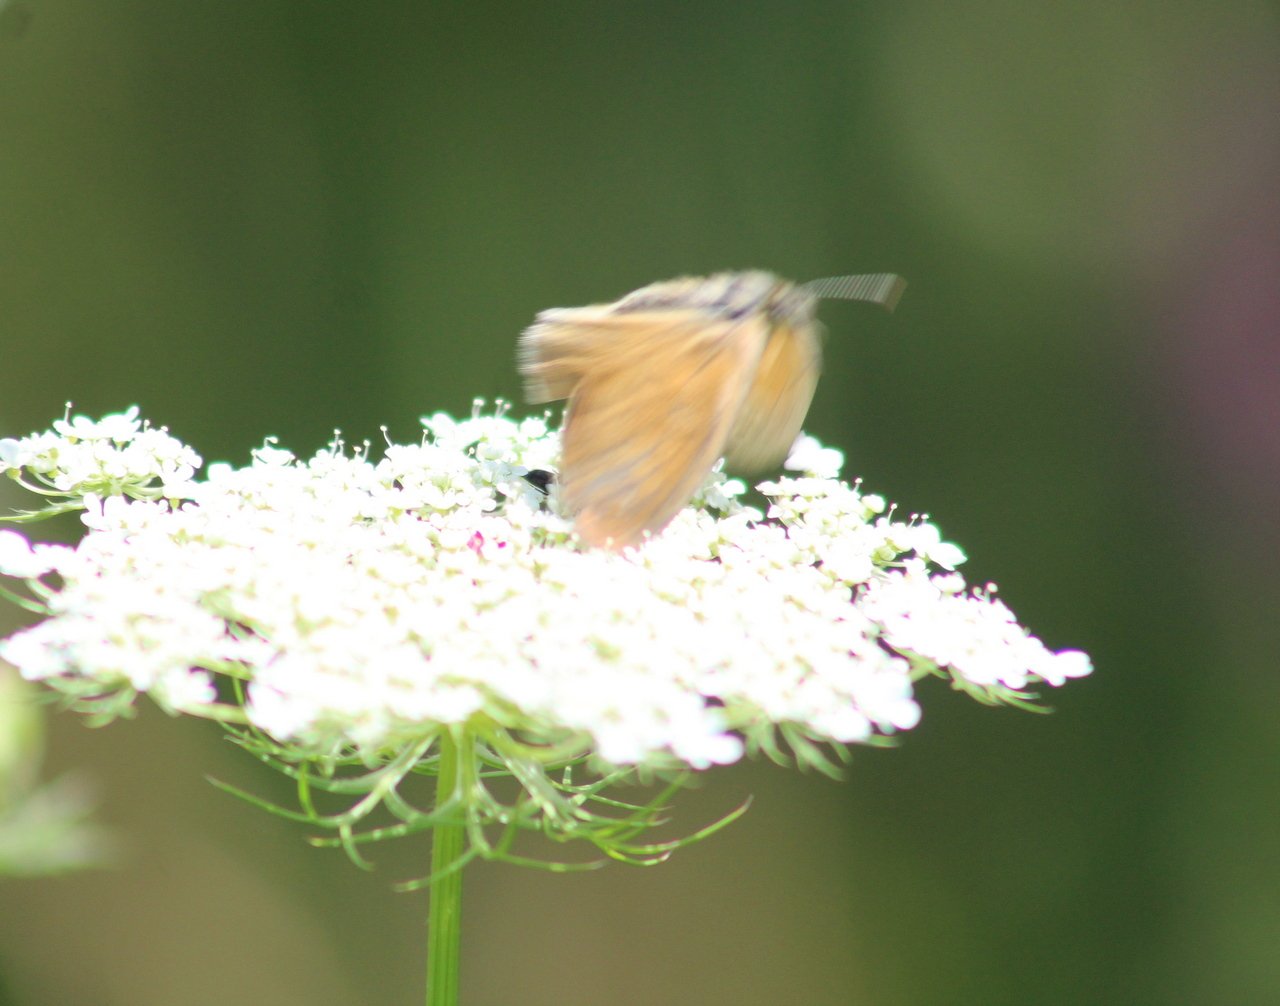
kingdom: Animalia
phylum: Arthropoda
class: Insecta
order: Lepidoptera
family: Nymphalidae
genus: Coenonympha
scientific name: Coenonympha tullia
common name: Large Heath
